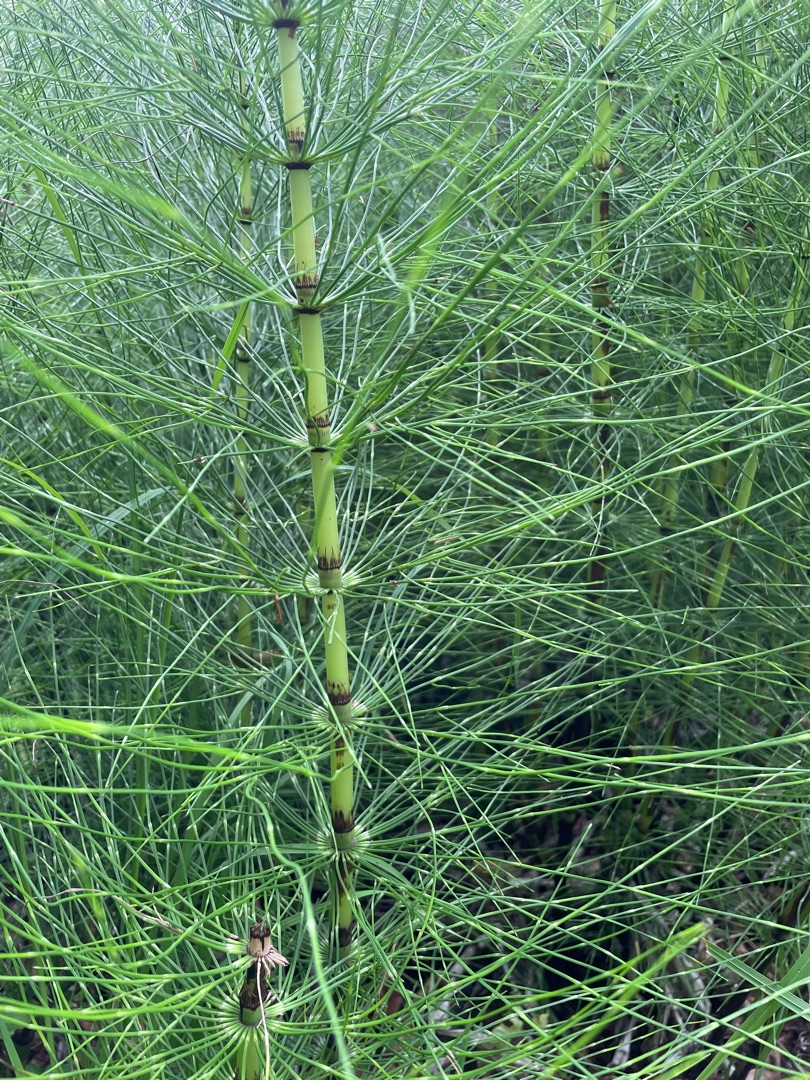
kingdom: Plantae
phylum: Tracheophyta
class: Polypodiopsida
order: Equisetales
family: Equisetaceae
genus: Equisetum
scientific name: Equisetum telmateia
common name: Elfenbens-padderok
